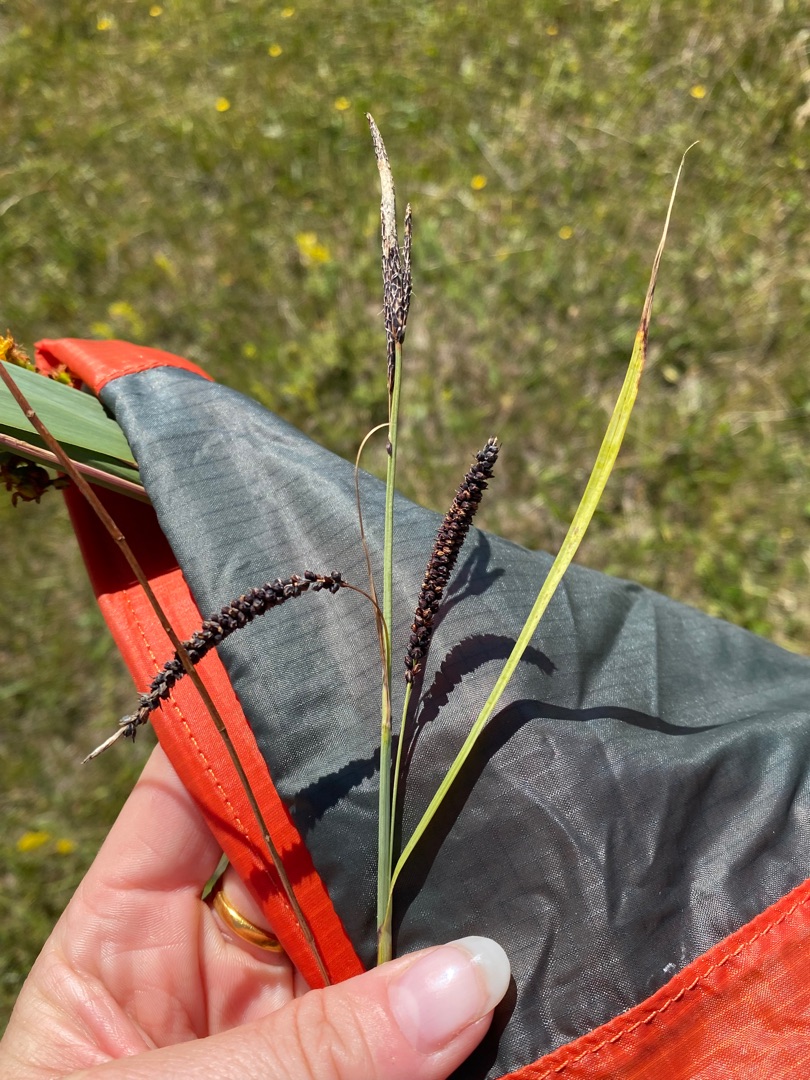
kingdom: Plantae
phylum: Tracheophyta
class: Liliopsida
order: Poales
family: Cyperaceae
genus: Carex
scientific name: Carex flacca
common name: Blågrøn star
